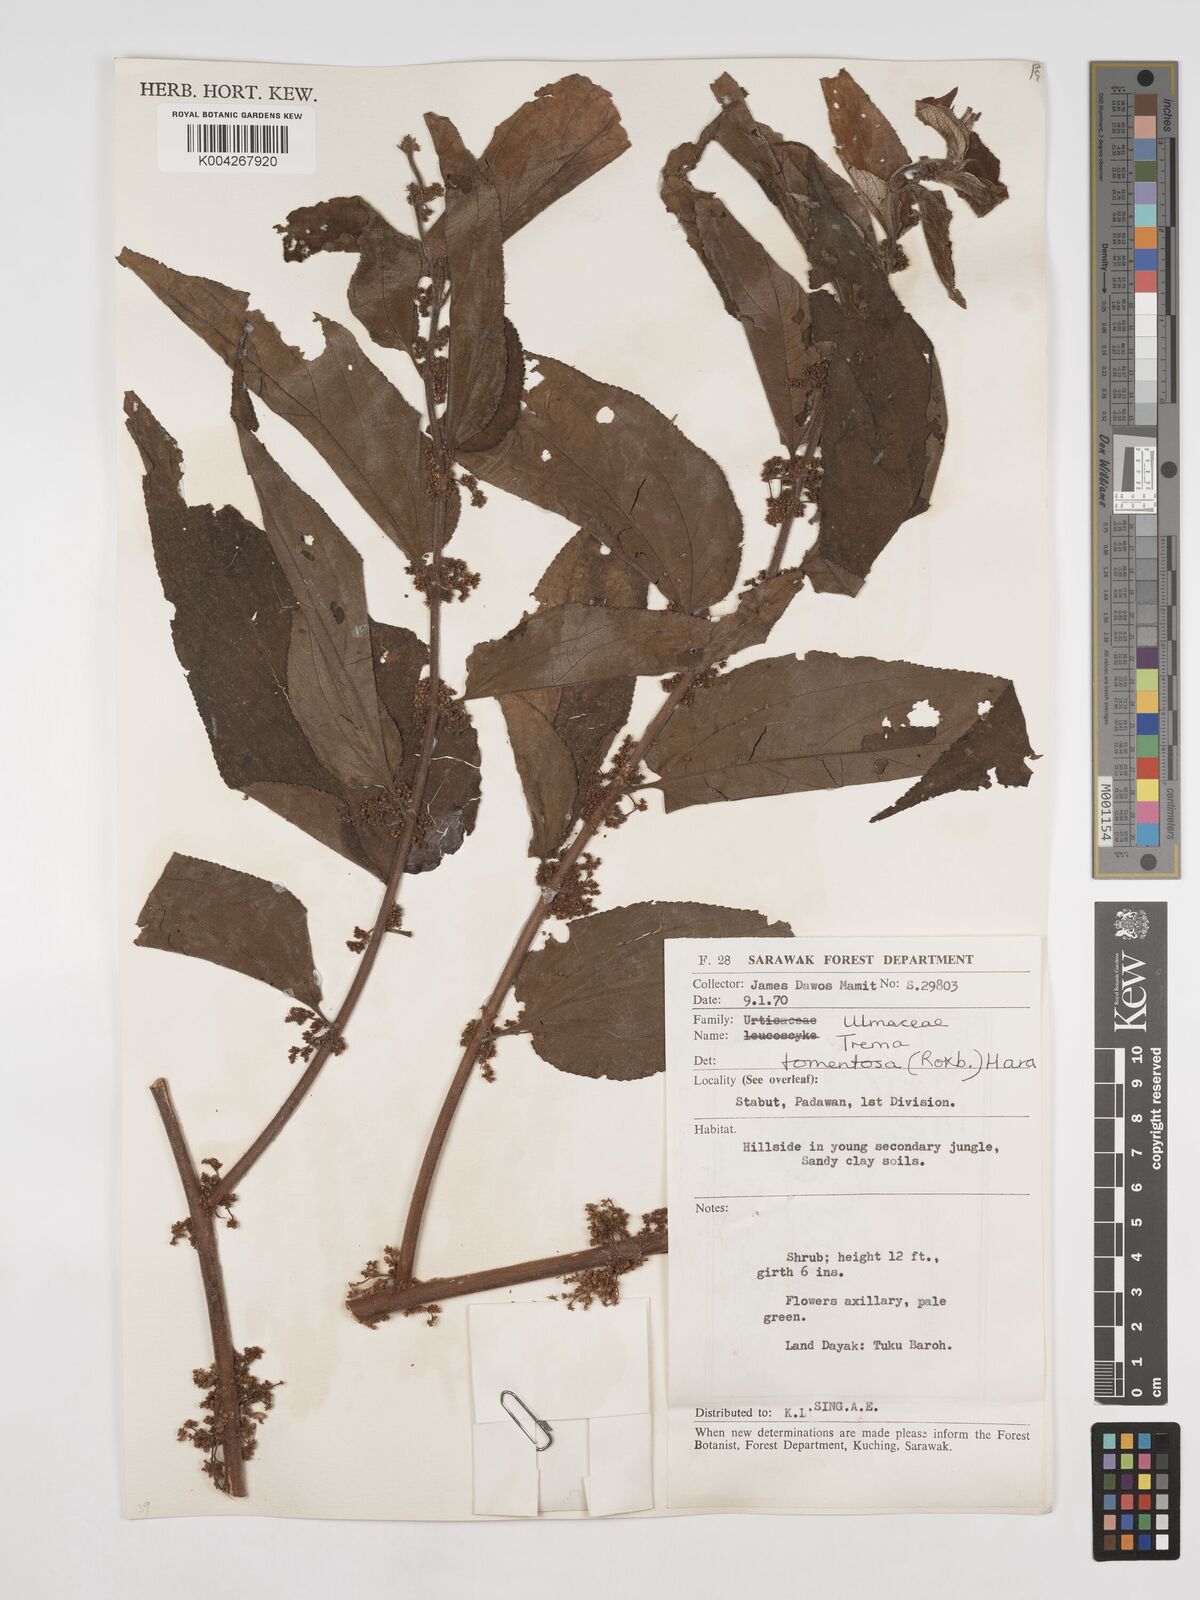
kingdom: Plantae
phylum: Tracheophyta
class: Magnoliopsida
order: Rosales
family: Cannabaceae
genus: Trema
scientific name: Trema tomentosum
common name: Peach-leaf-poisonbush
